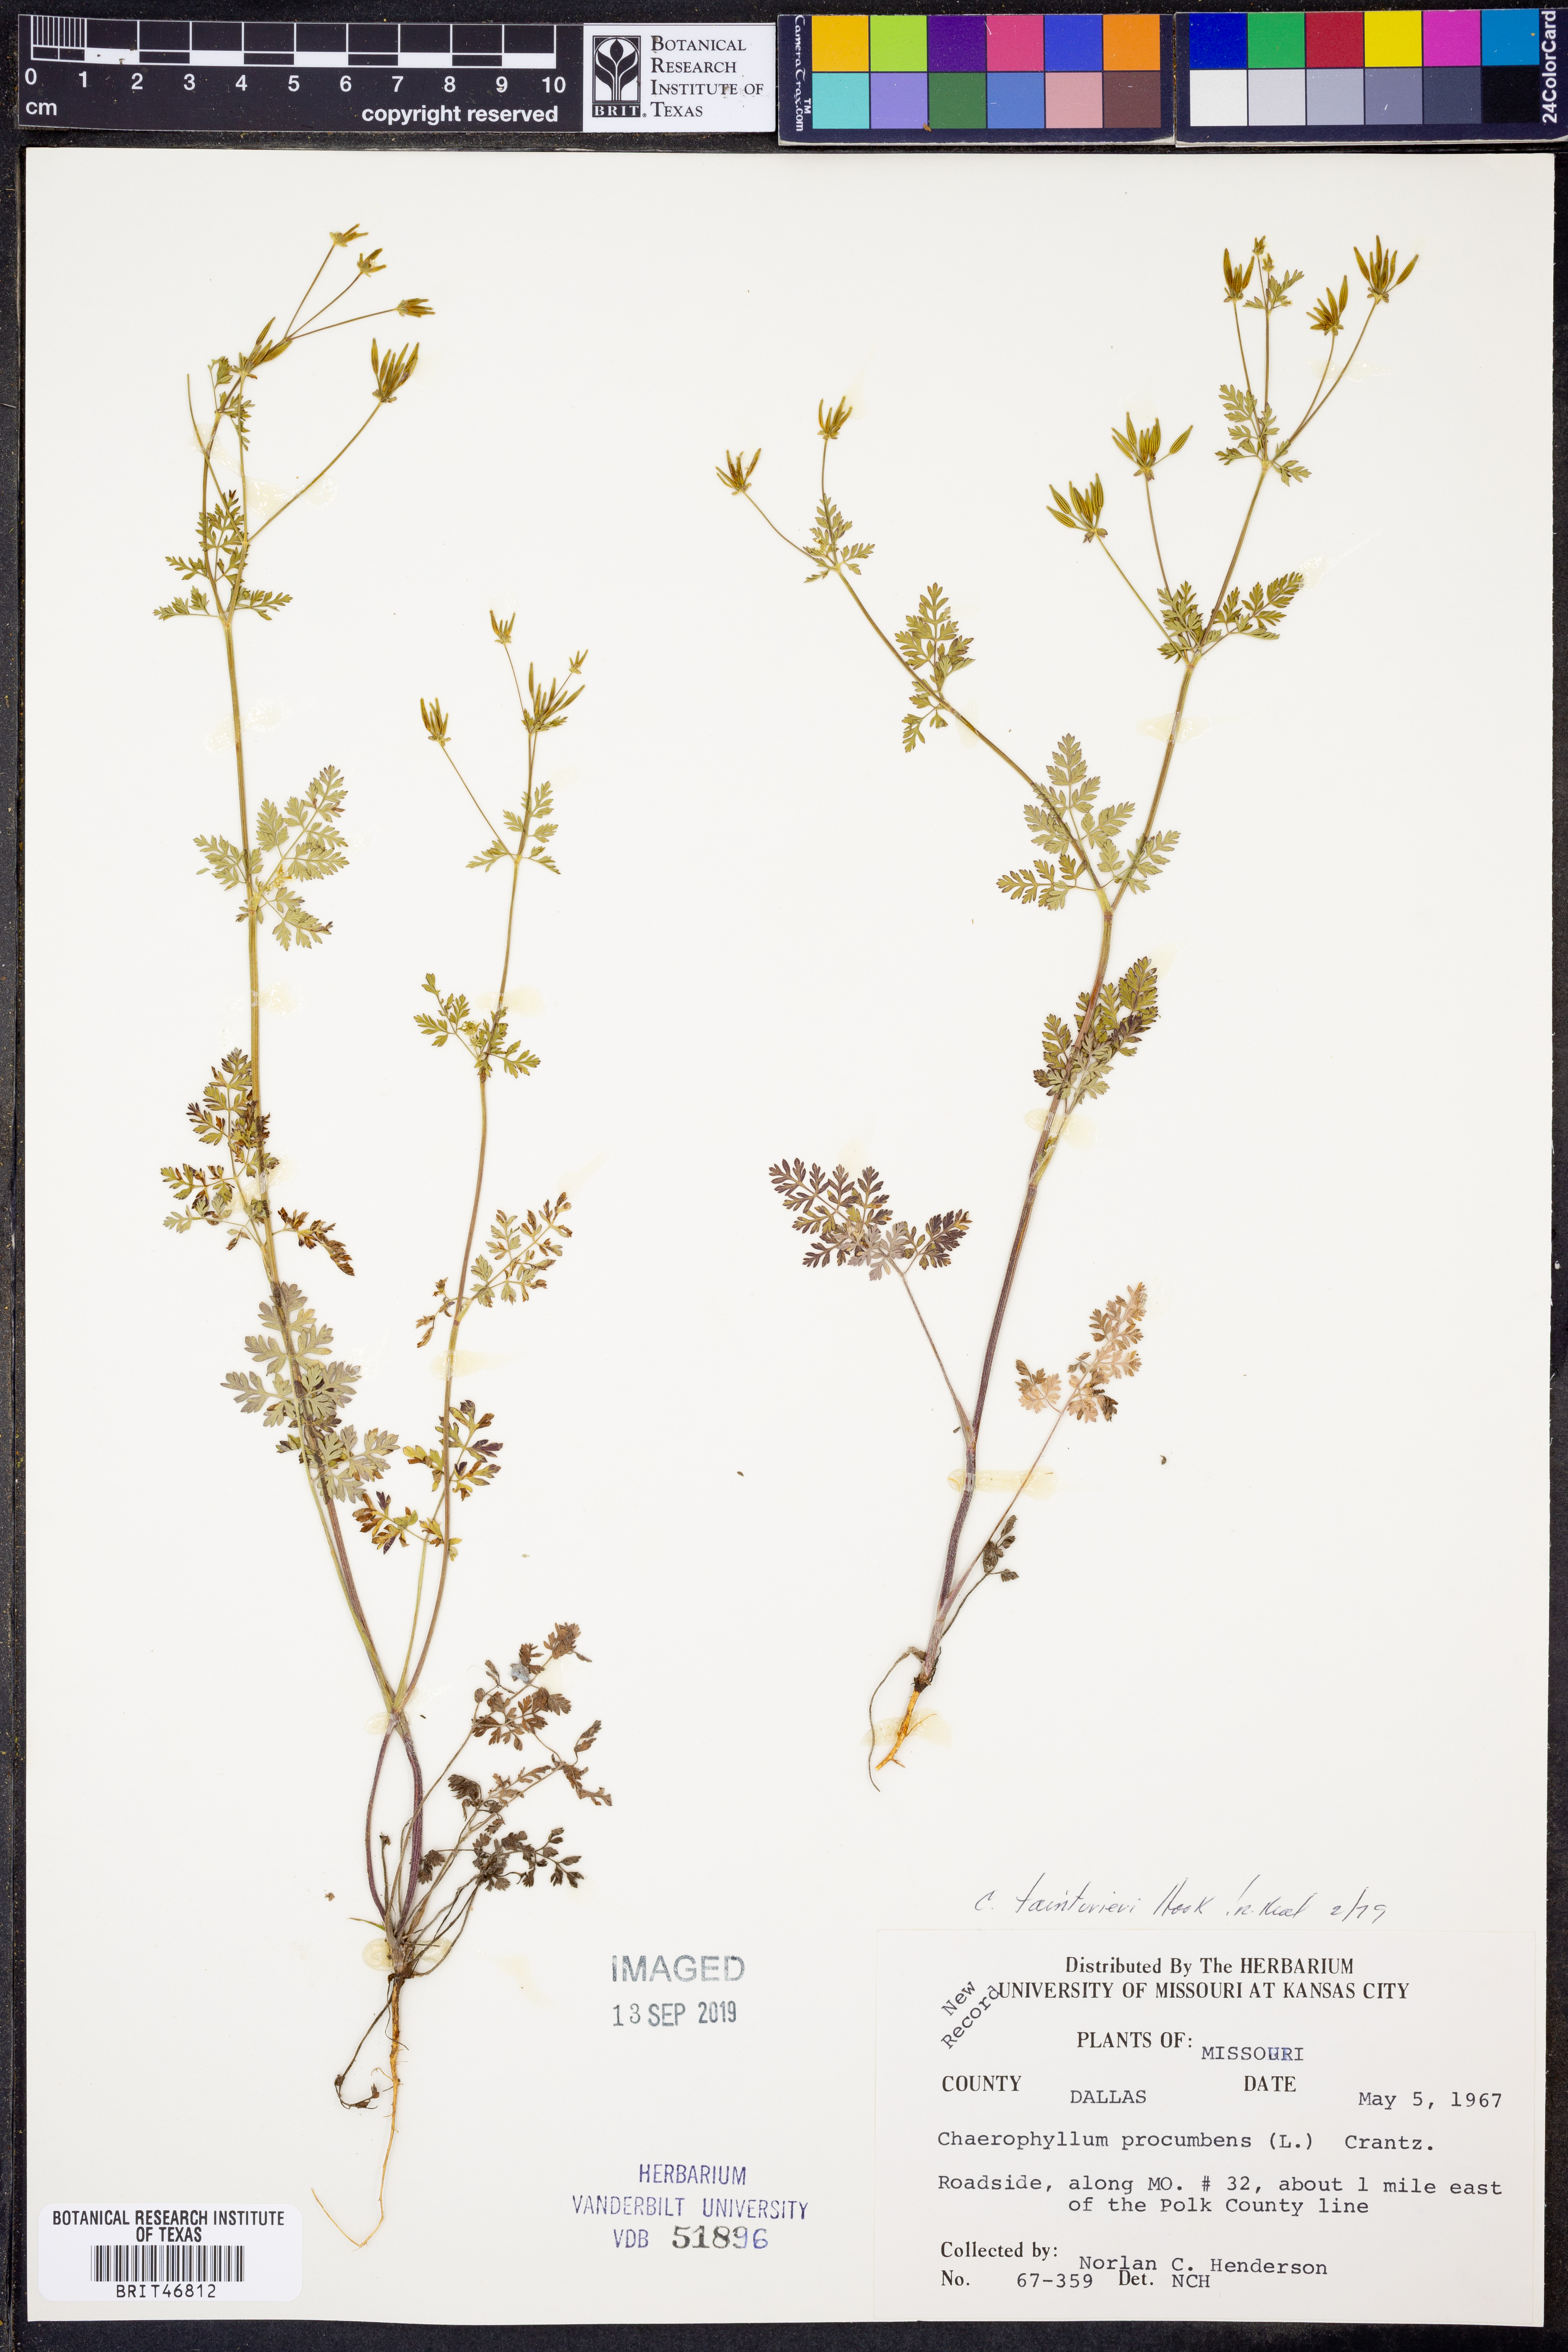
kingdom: Plantae
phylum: Tracheophyta
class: Magnoliopsida
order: Apiales
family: Apiaceae
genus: Chaerophyllum
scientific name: Chaerophyllum tainturieri
